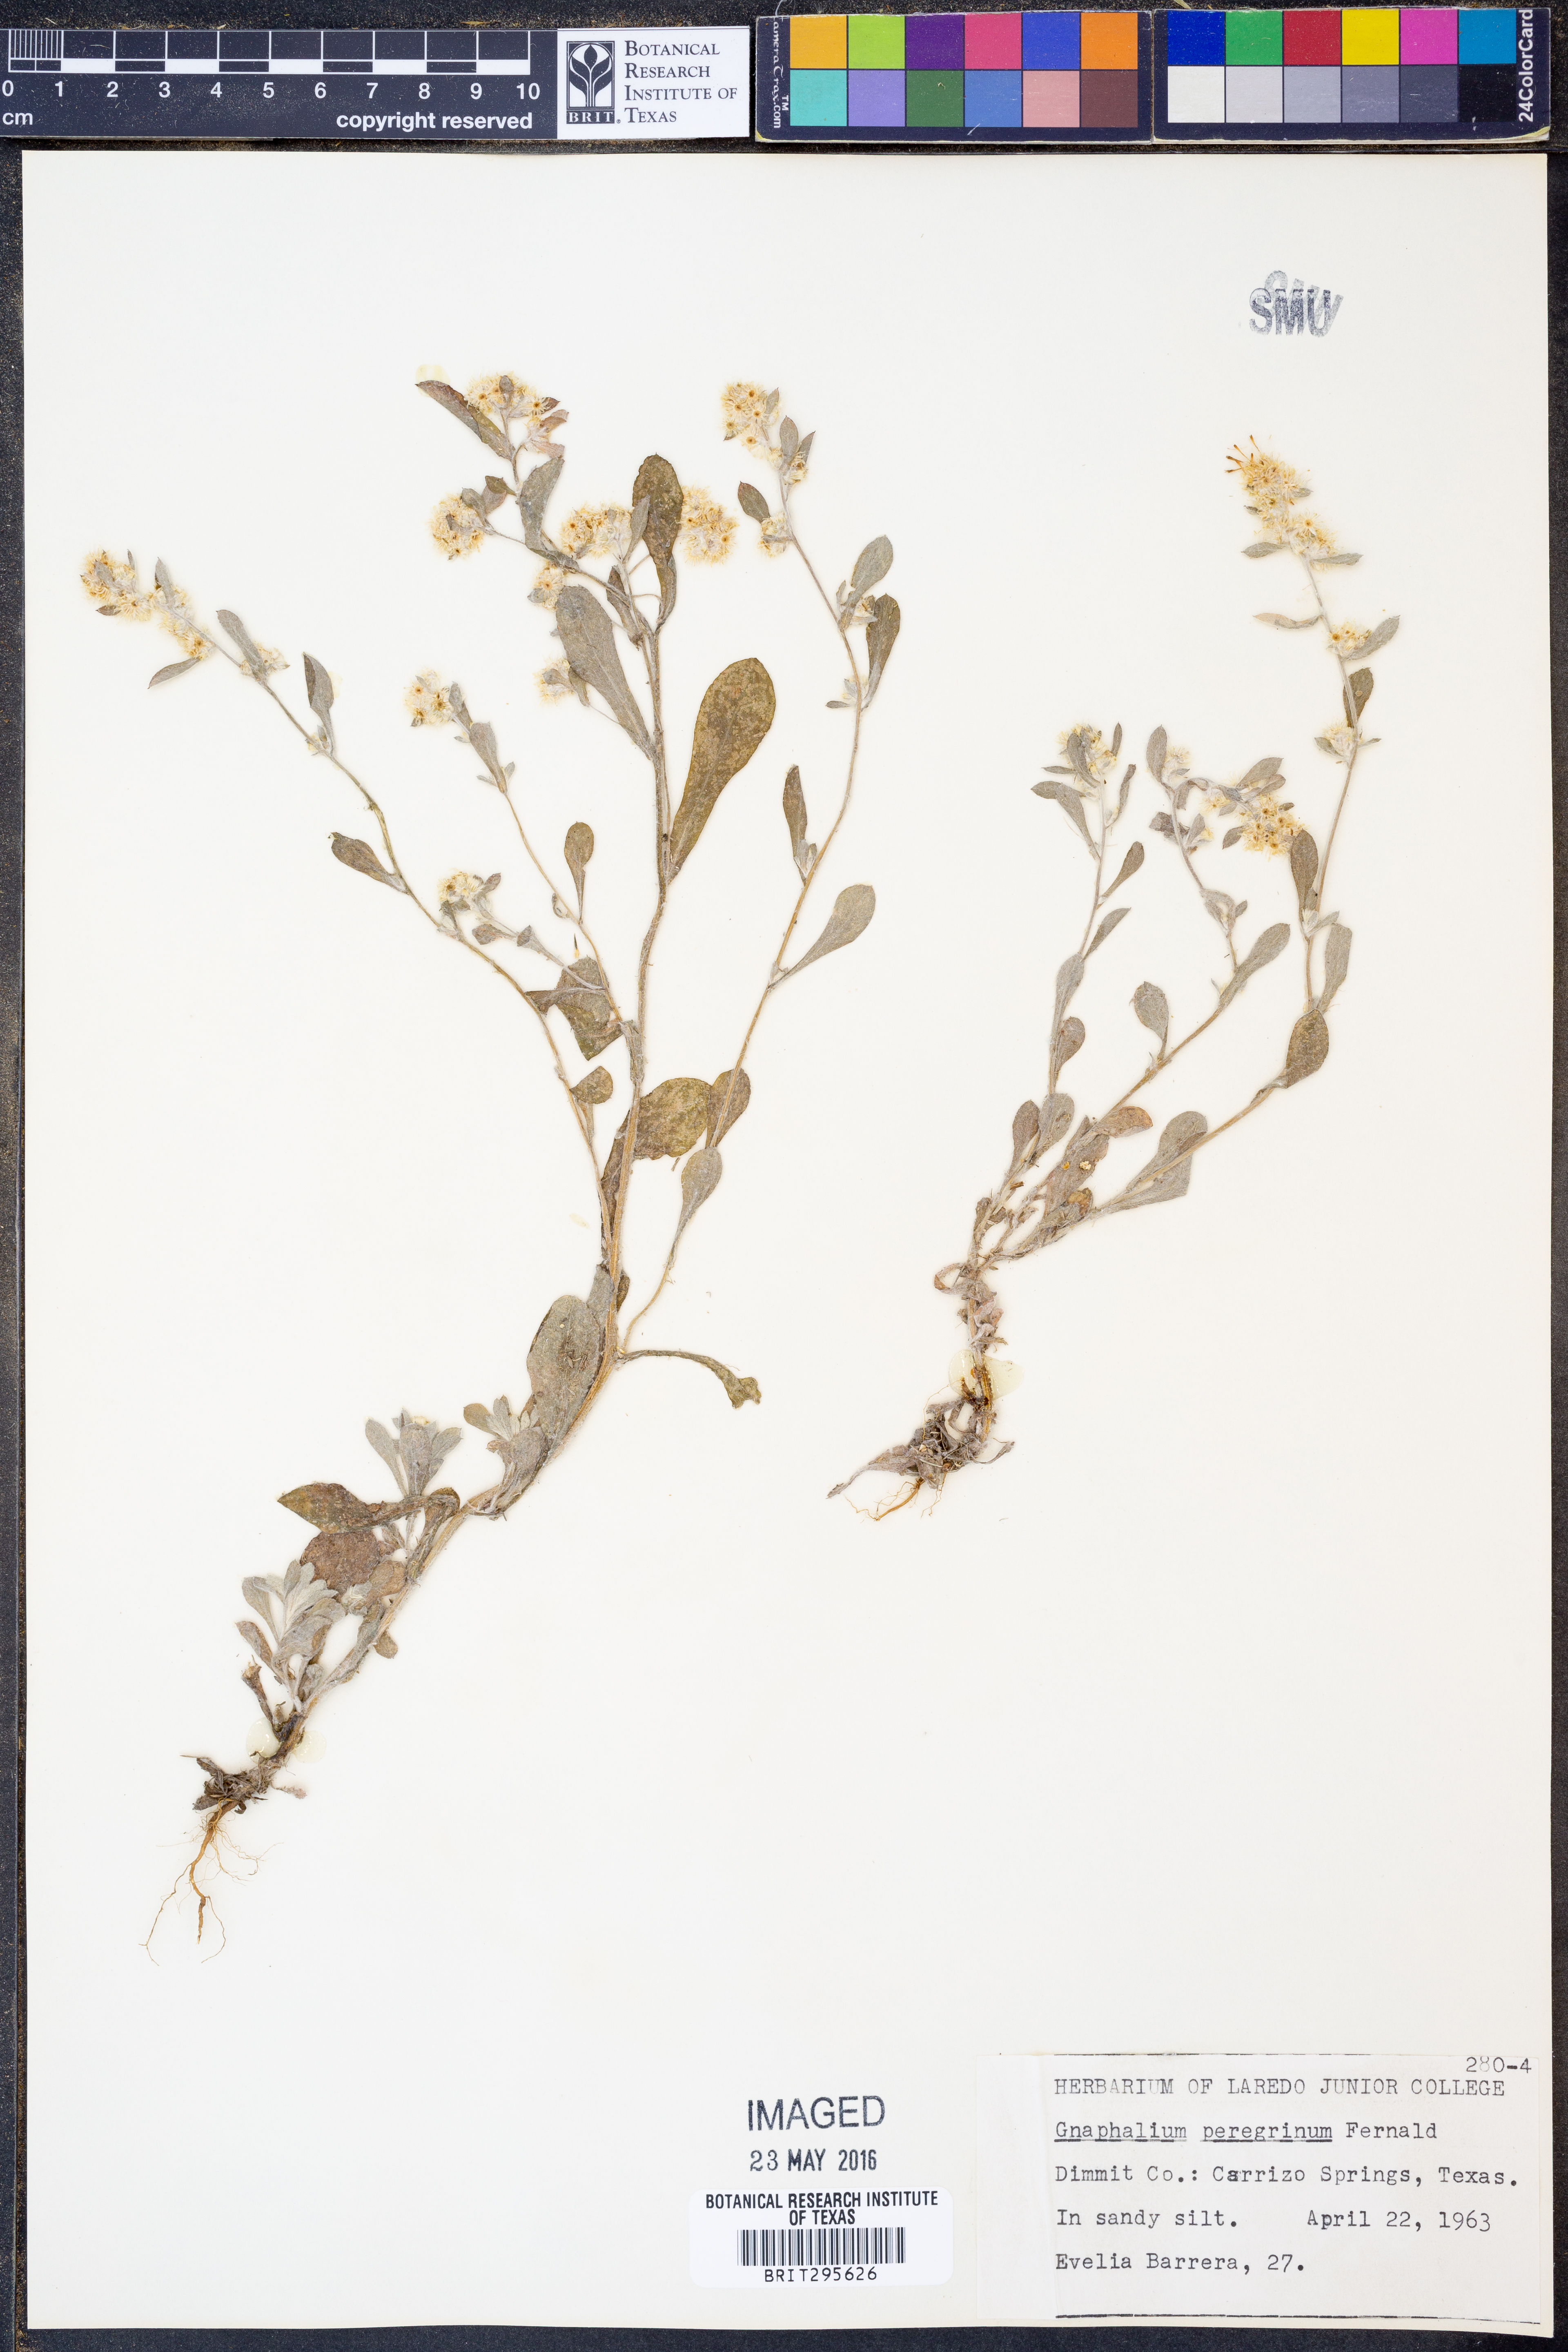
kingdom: Plantae
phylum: Tracheophyta
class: Magnoliopsida
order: Asterales
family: Asteraceae
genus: Gamochaeta
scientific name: Gamochaeta pensylvanica
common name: Pennsylvania everlasting
